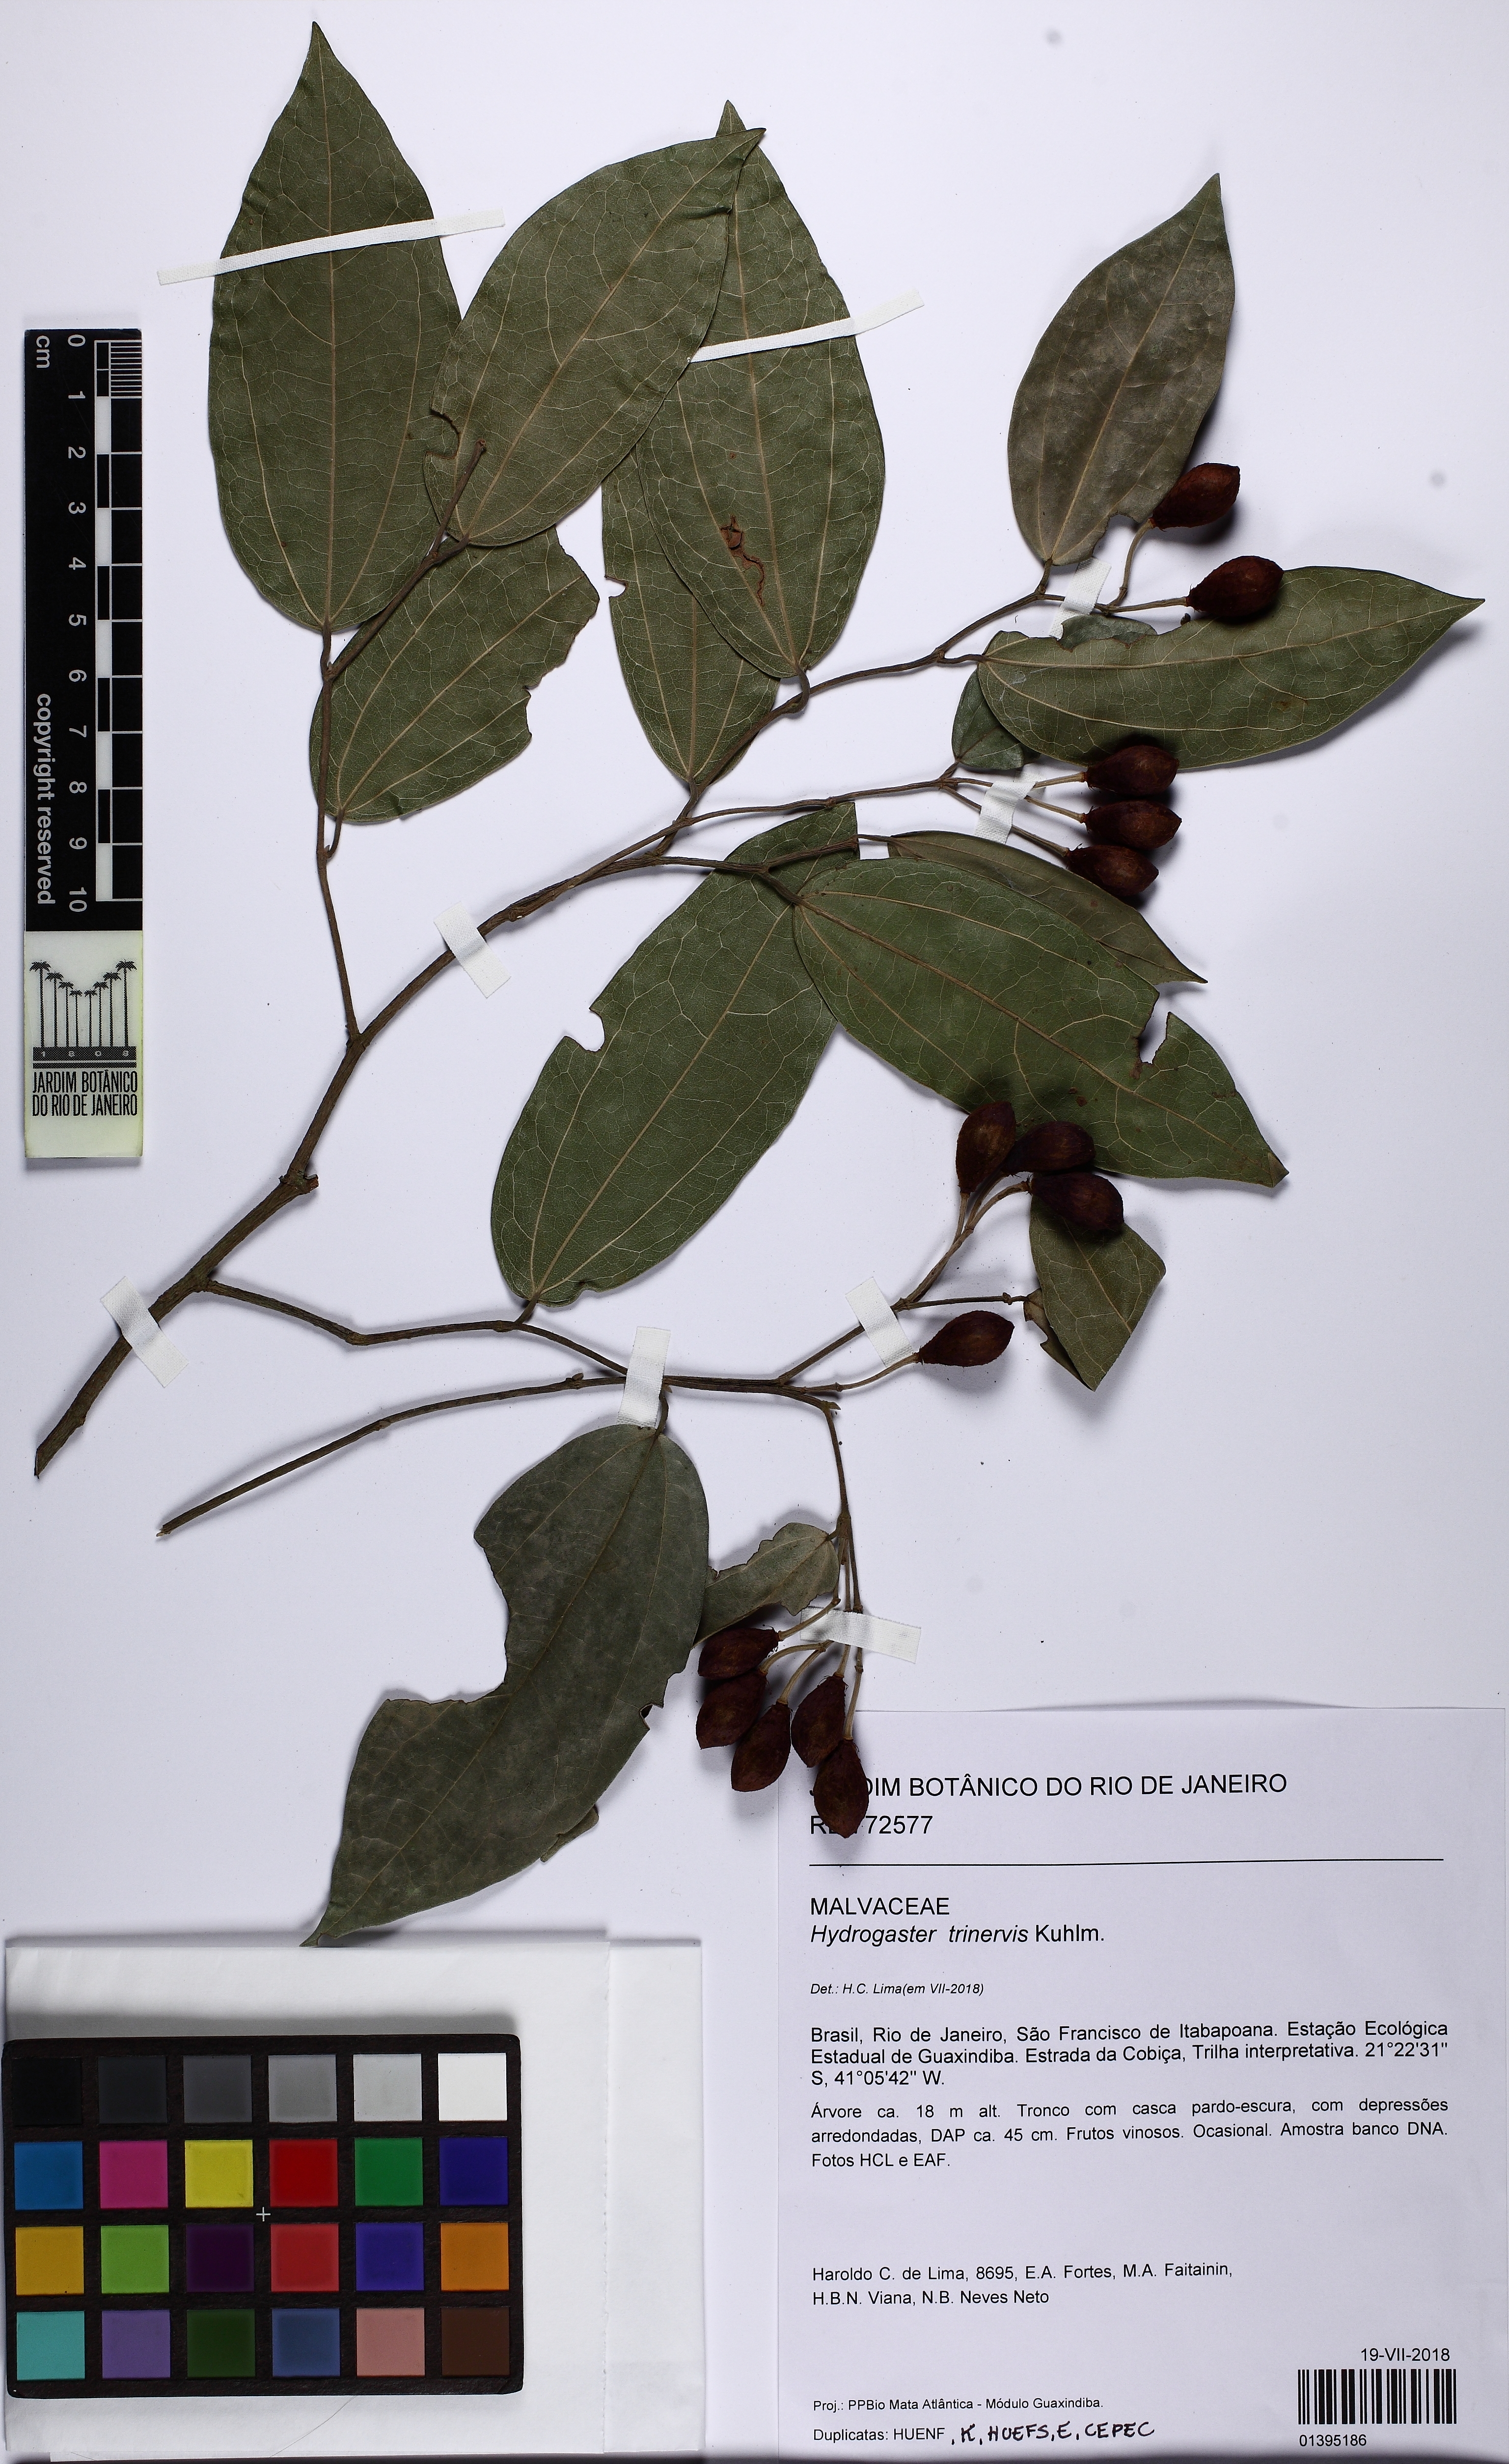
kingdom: Plantae
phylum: Tracheophyta
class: Magnoliopsida
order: Malvales
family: Malvaceae
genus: Hydrogaster
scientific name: Hydrogaster trinervis
